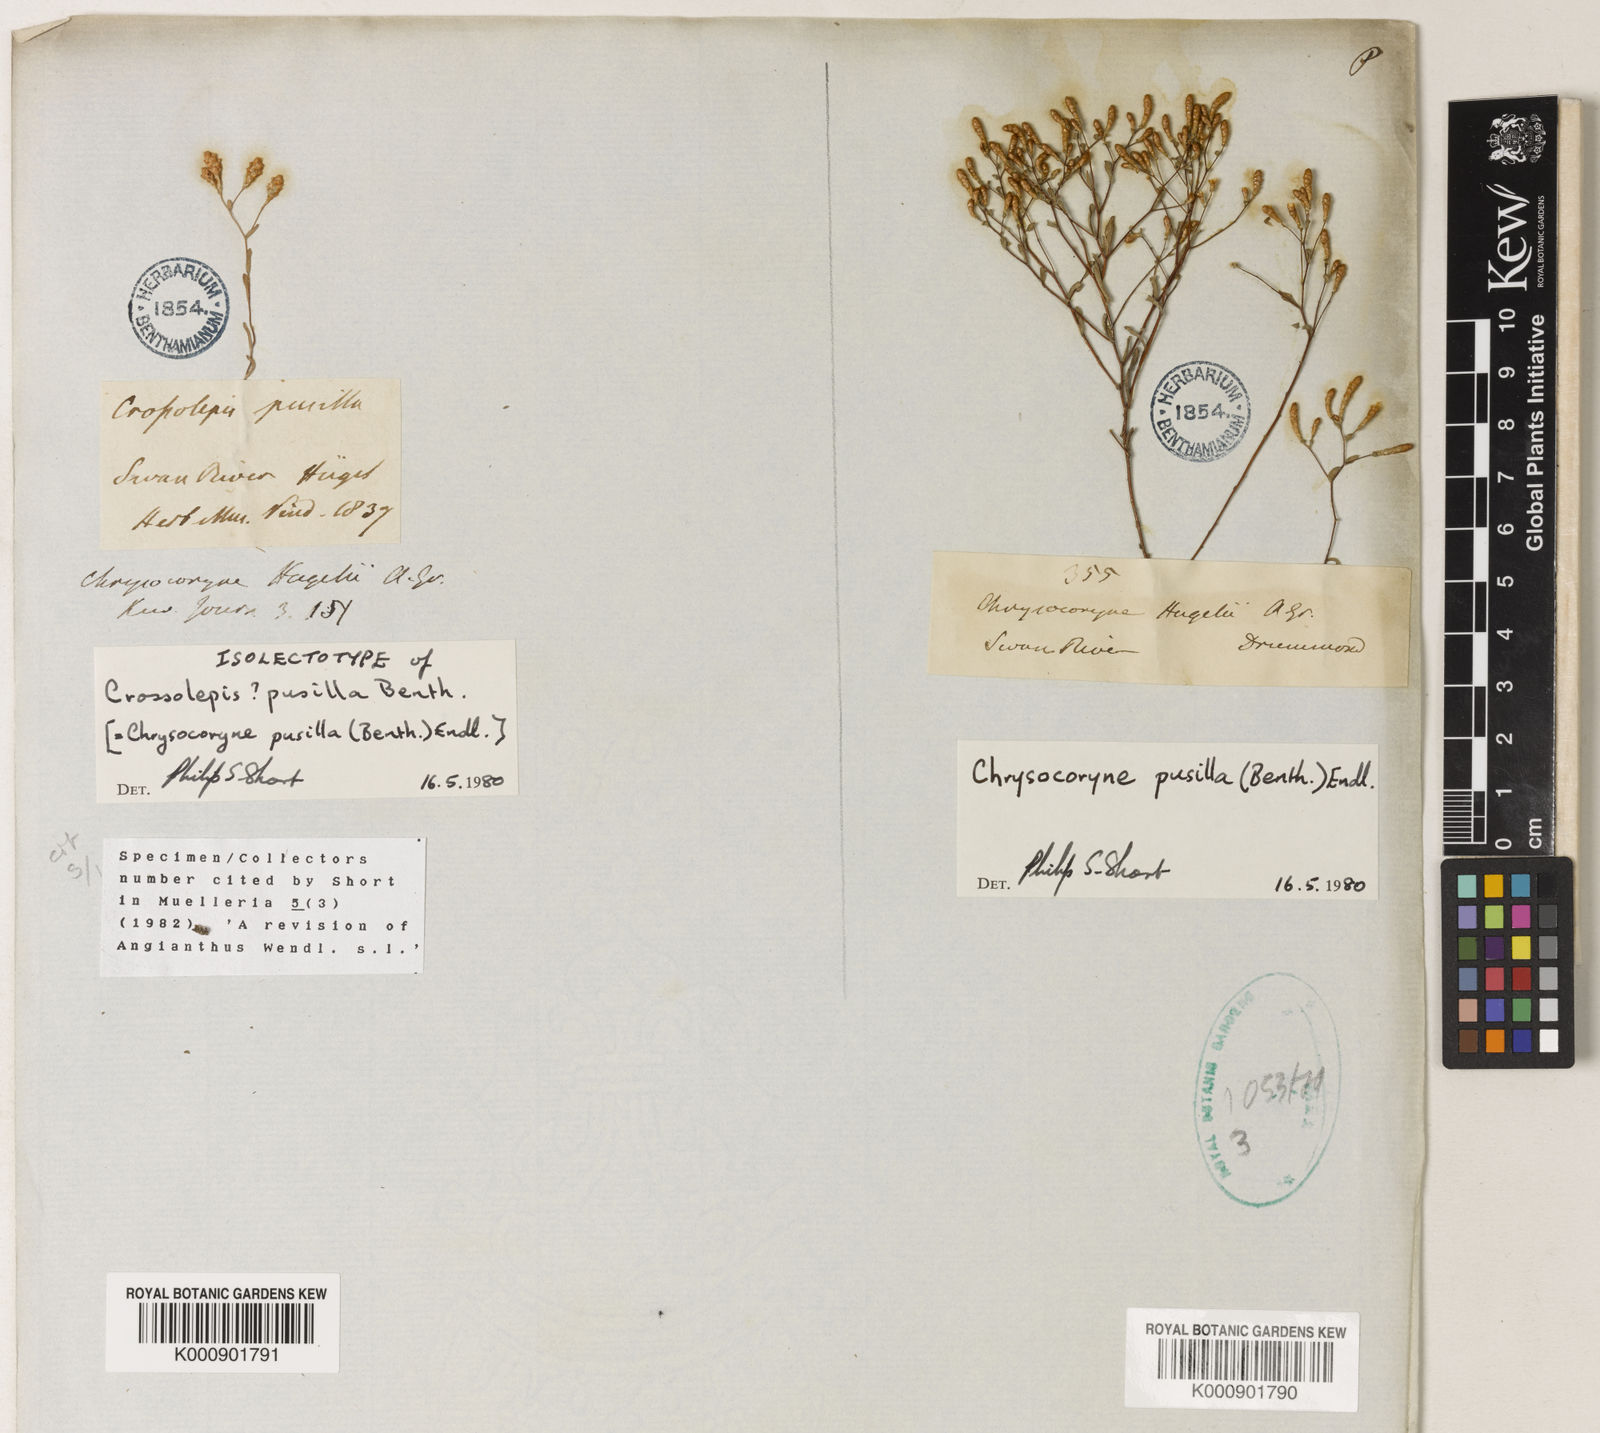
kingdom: Plantae
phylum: Tracheophyta
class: Magnoliopsida
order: Asterales
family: Asteraceae
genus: Gnephosis
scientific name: Gnephosis tenuissima
